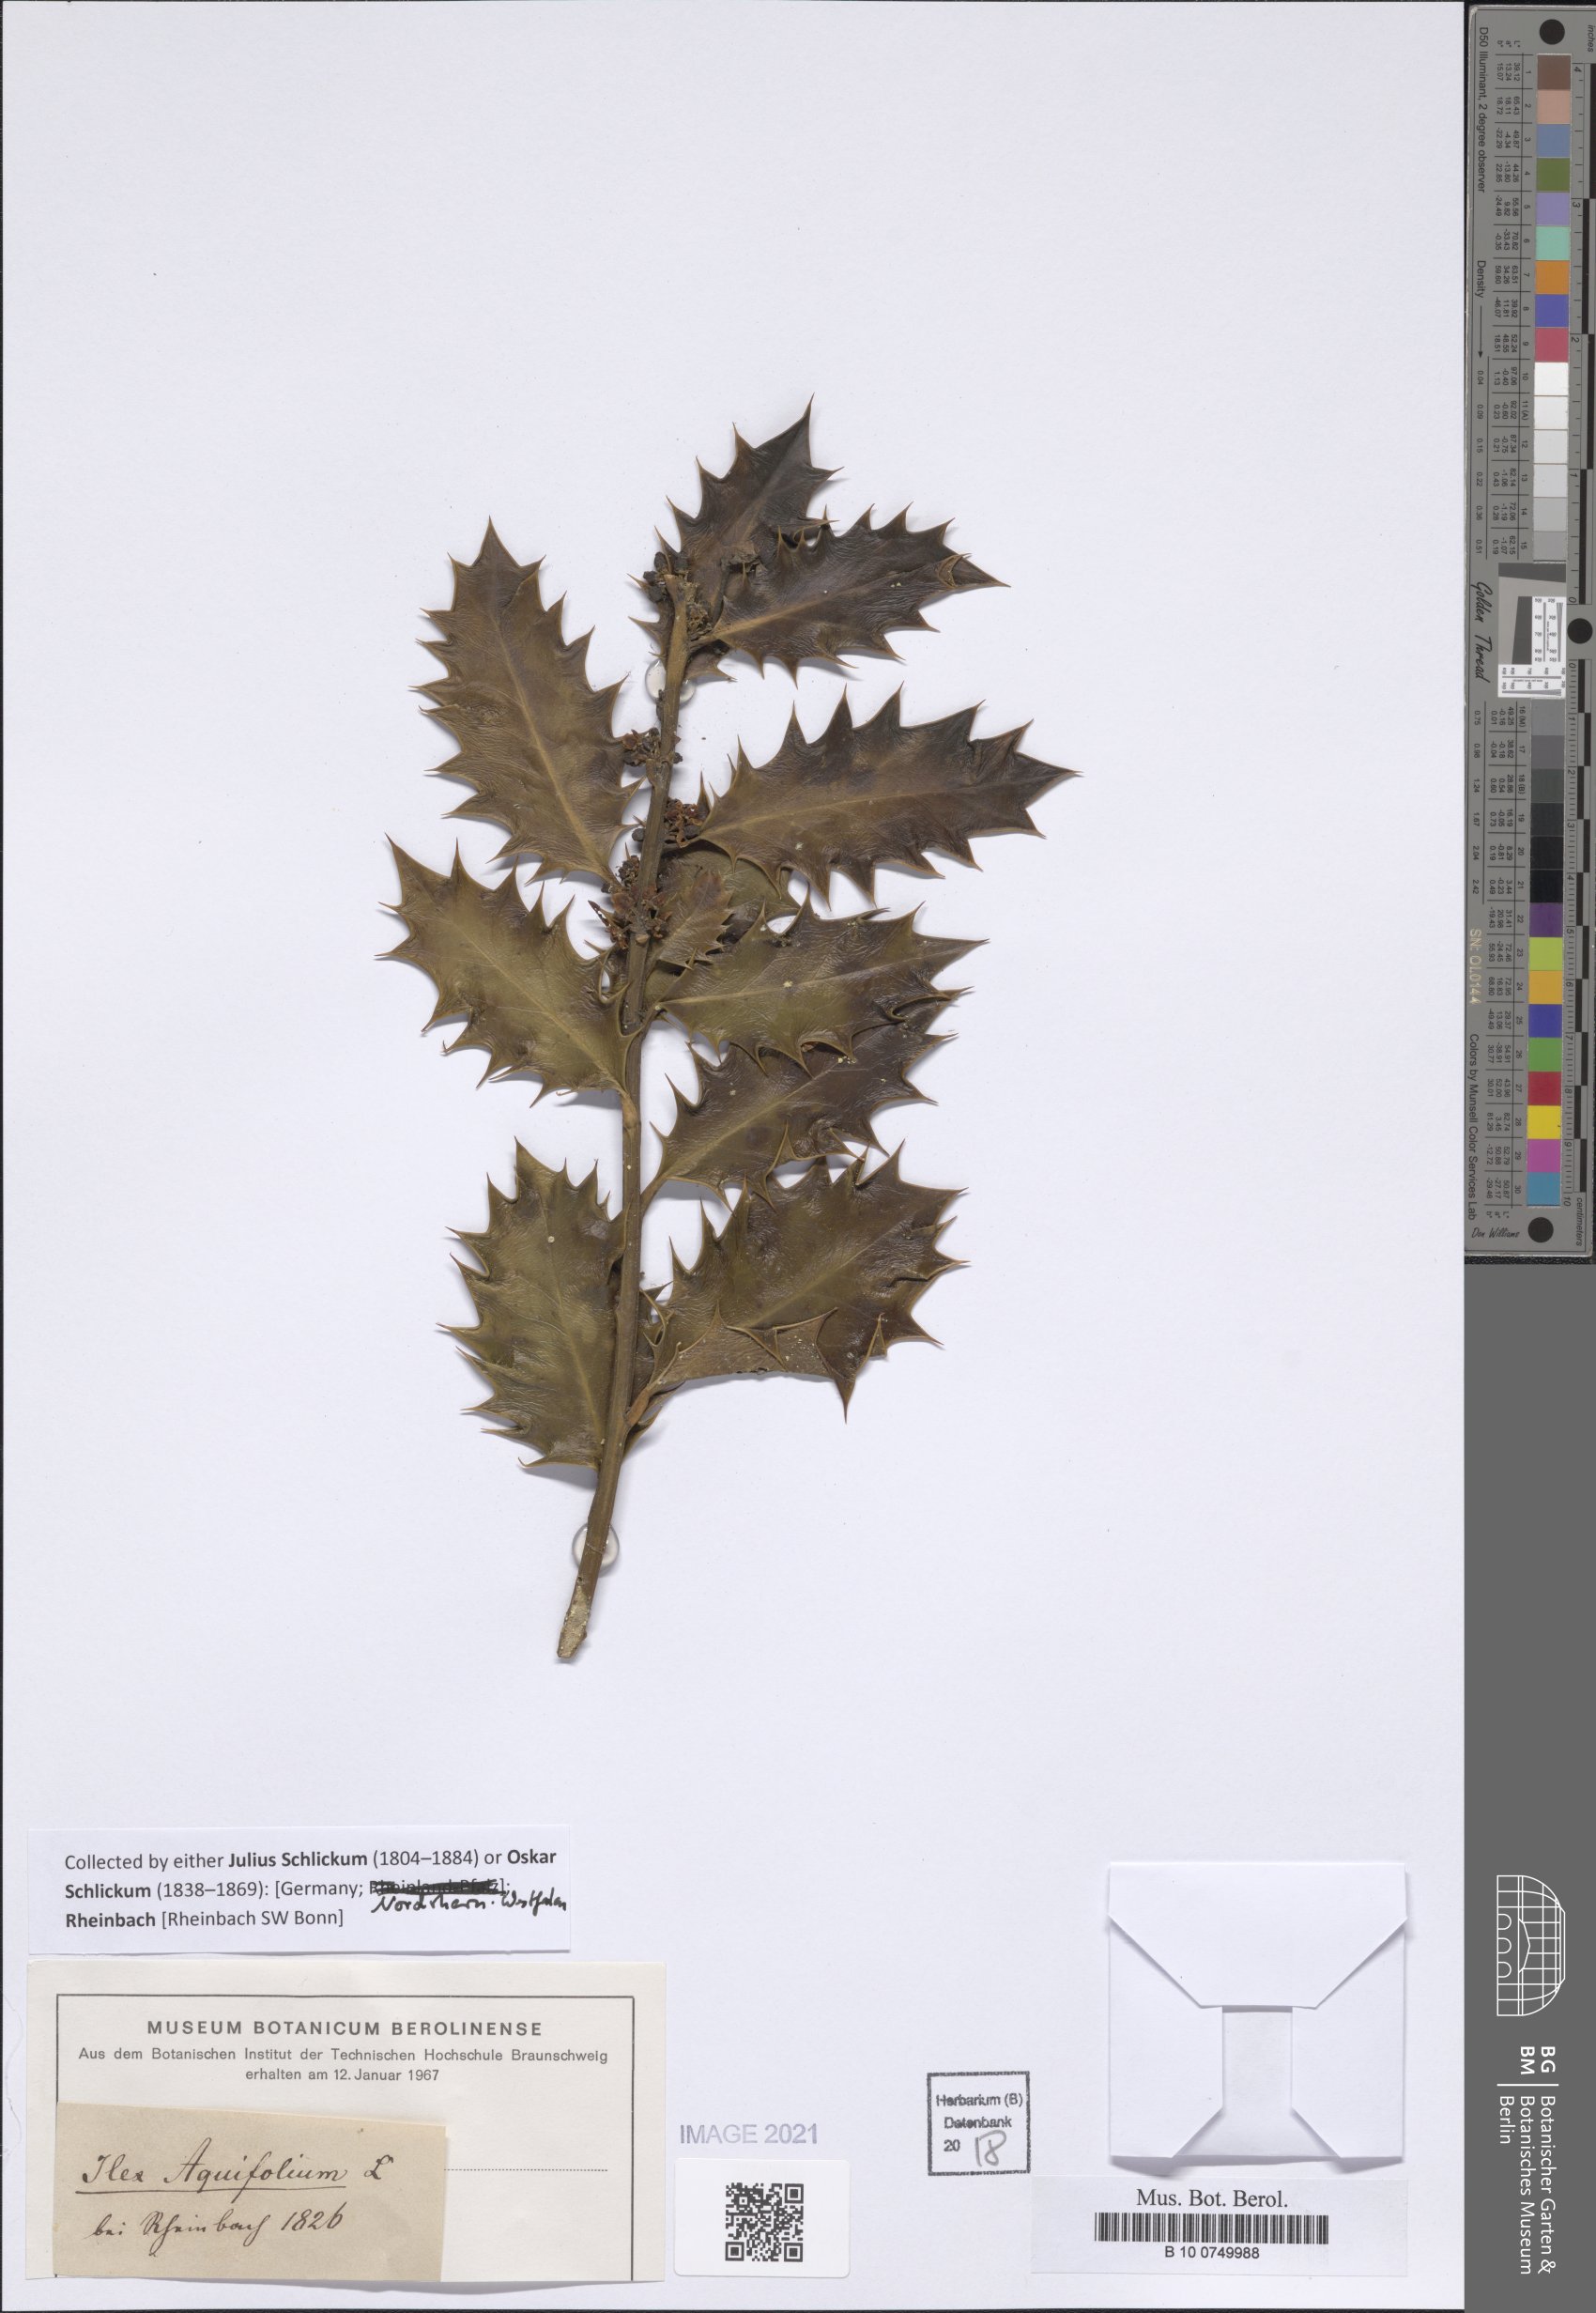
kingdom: Plantae
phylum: Tracheophyta
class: Magnoliopsida
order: Aquifoliales
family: Aquifoliaceae
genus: Ilex
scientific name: Ilex aquifolium
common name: English holly
